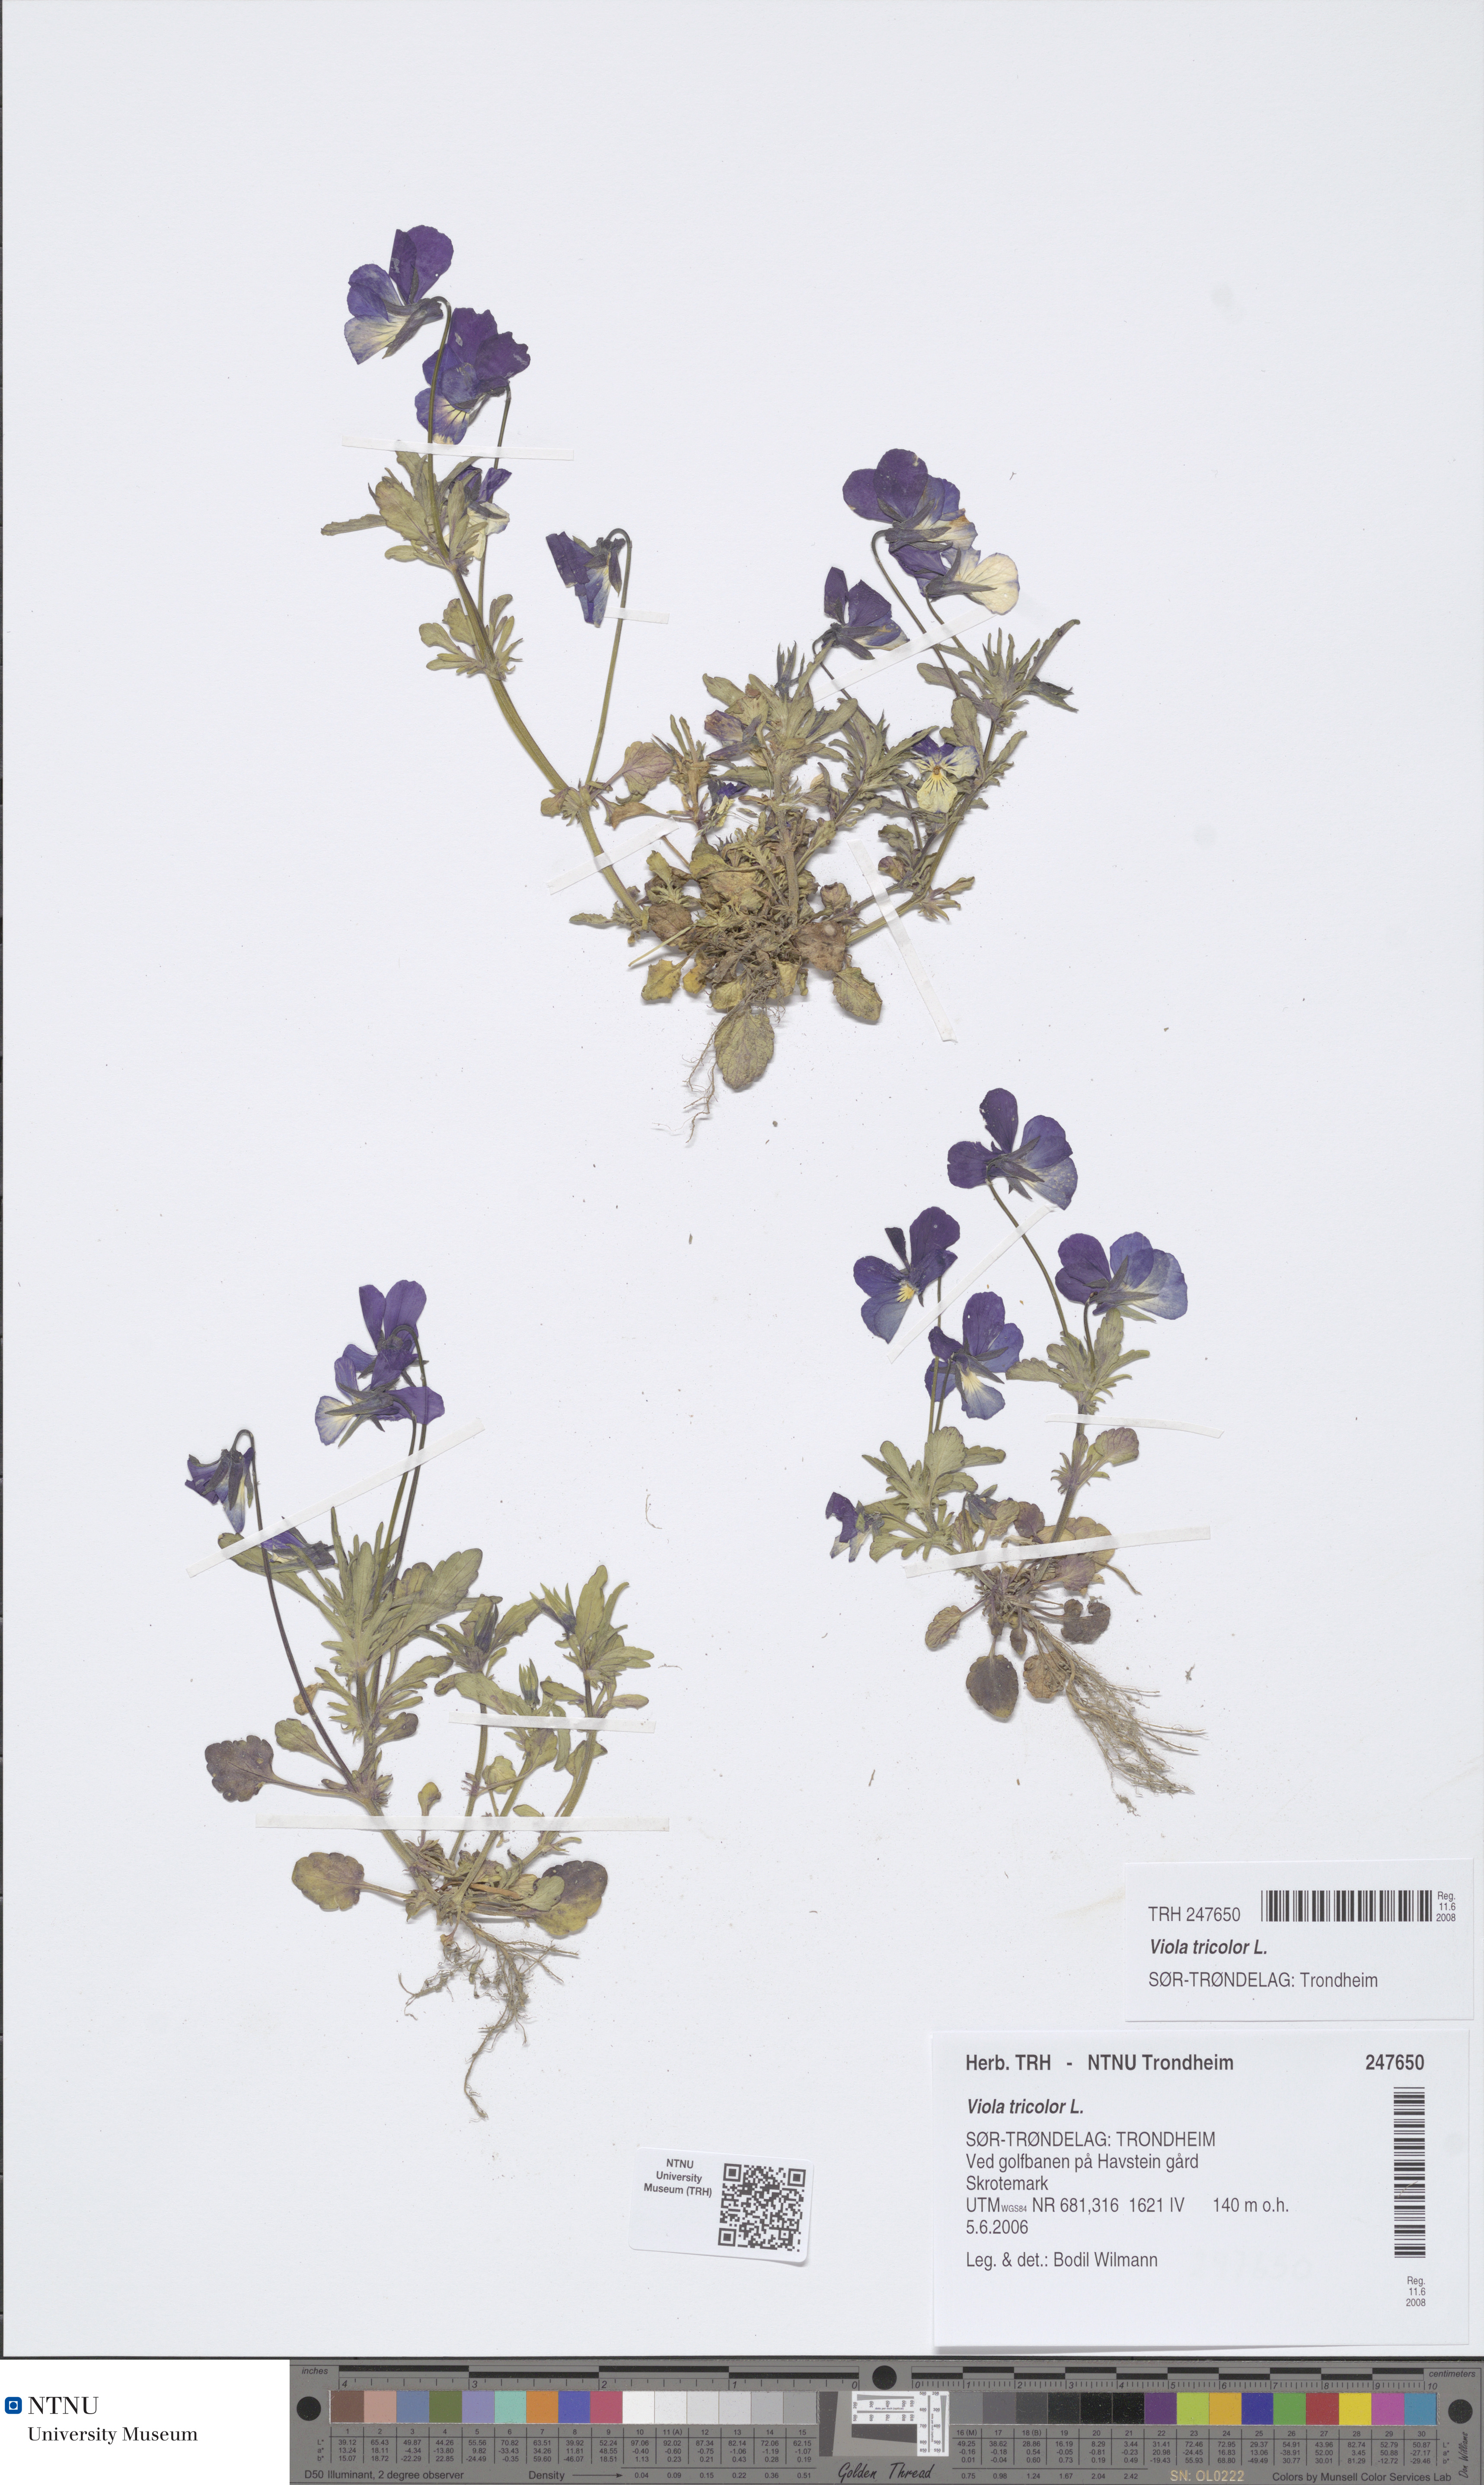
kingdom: Plantae
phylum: Tracheophyta
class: Magnoliopsida
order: Malpighiales
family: Violaceae
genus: Viola
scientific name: Viola tricolor
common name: Pansy
